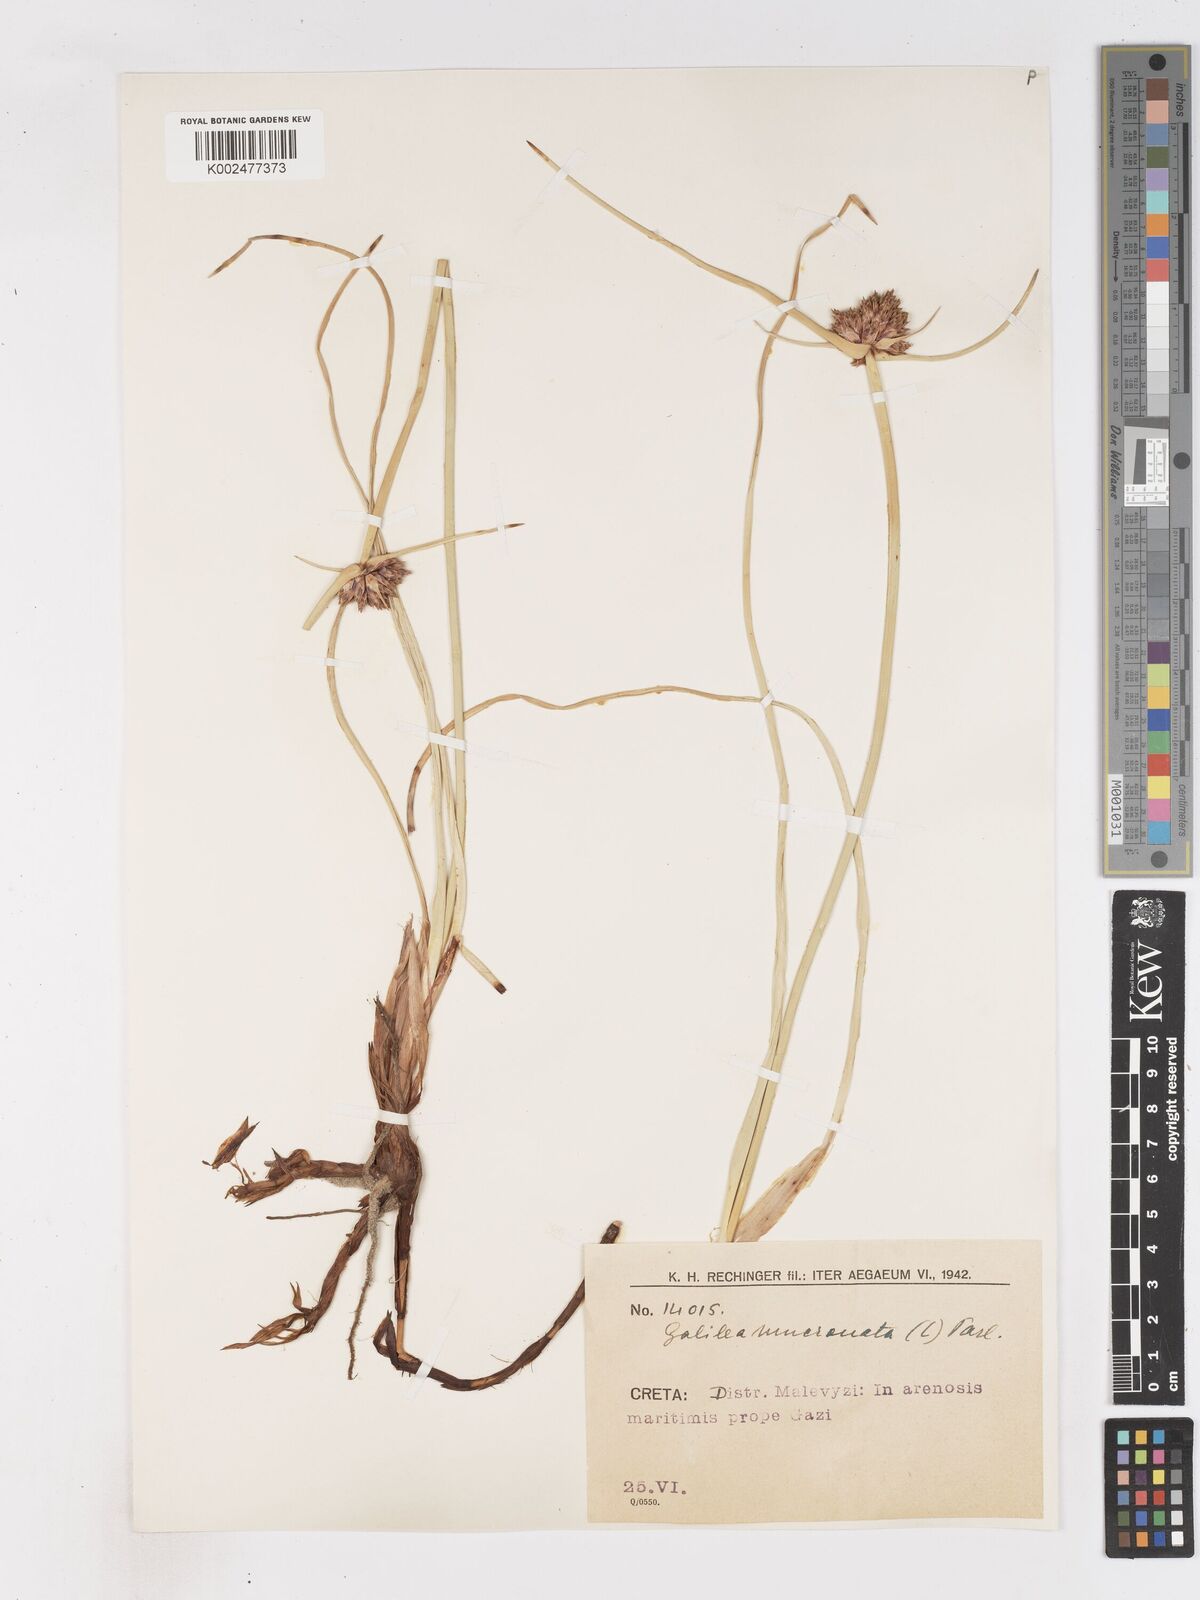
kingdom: Plantae
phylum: Tracheophyta
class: Liliopsida
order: Poales
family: Cyperaceae
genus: Cyperus
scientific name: Cyperus capitatus
